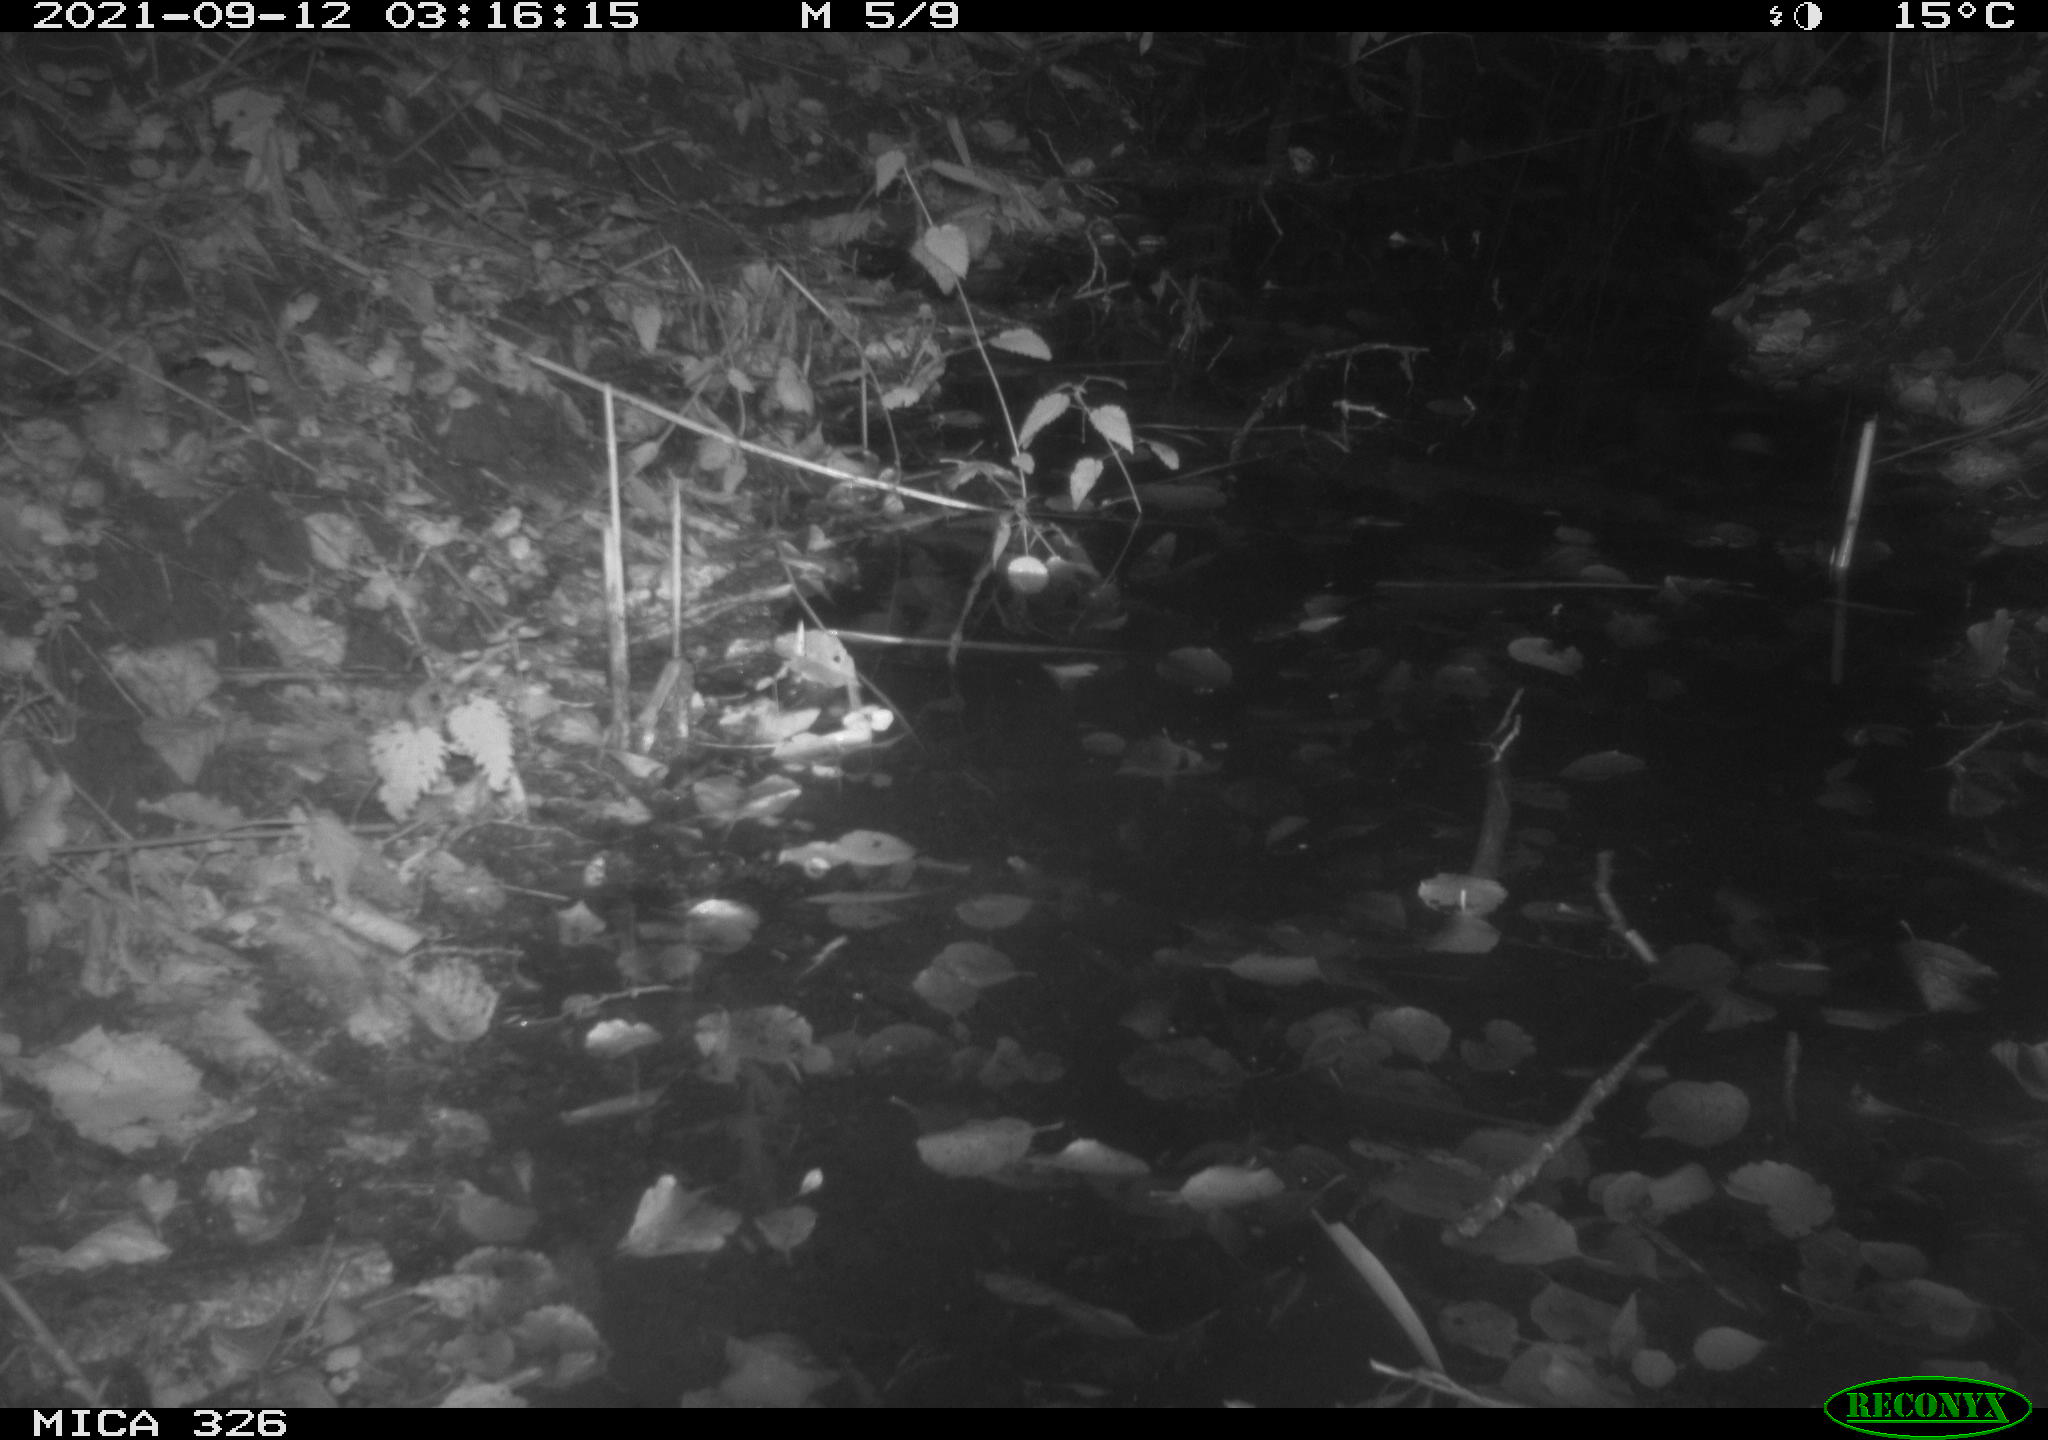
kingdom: Animalia
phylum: Chordata
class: Mammalia
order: Rodentia
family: Muridae
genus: Rattus
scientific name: Rattus norvegicus
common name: Brown rat
